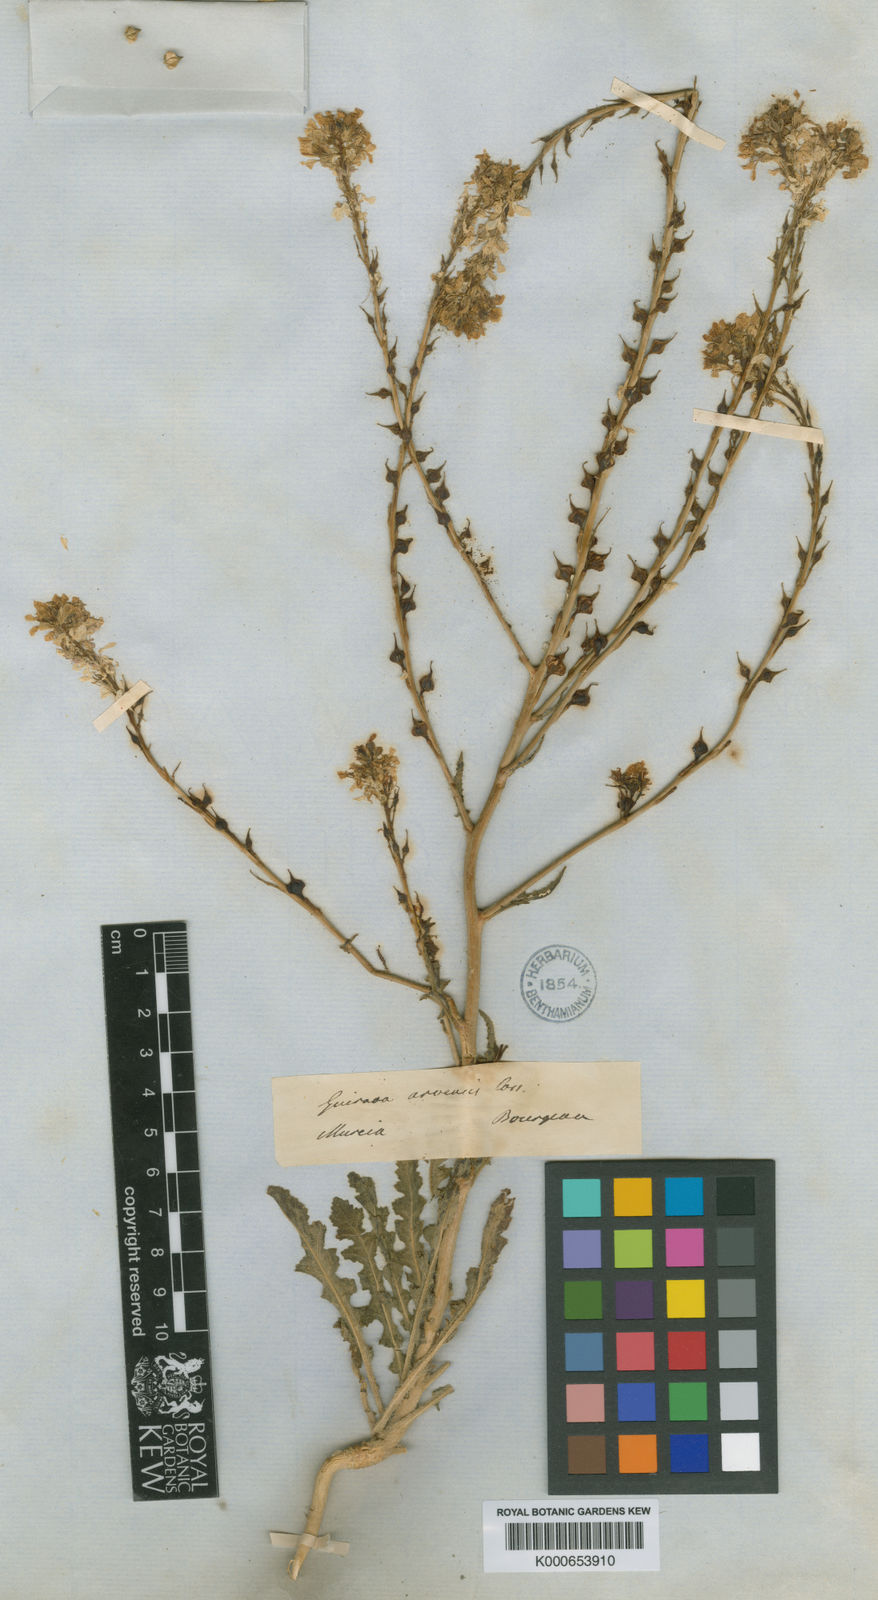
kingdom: Plantae
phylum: Tracheophyta
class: Magnoliopsida
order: Brassicales
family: Brassicaceae
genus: Guiraoa
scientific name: Guiraoa arvensis
